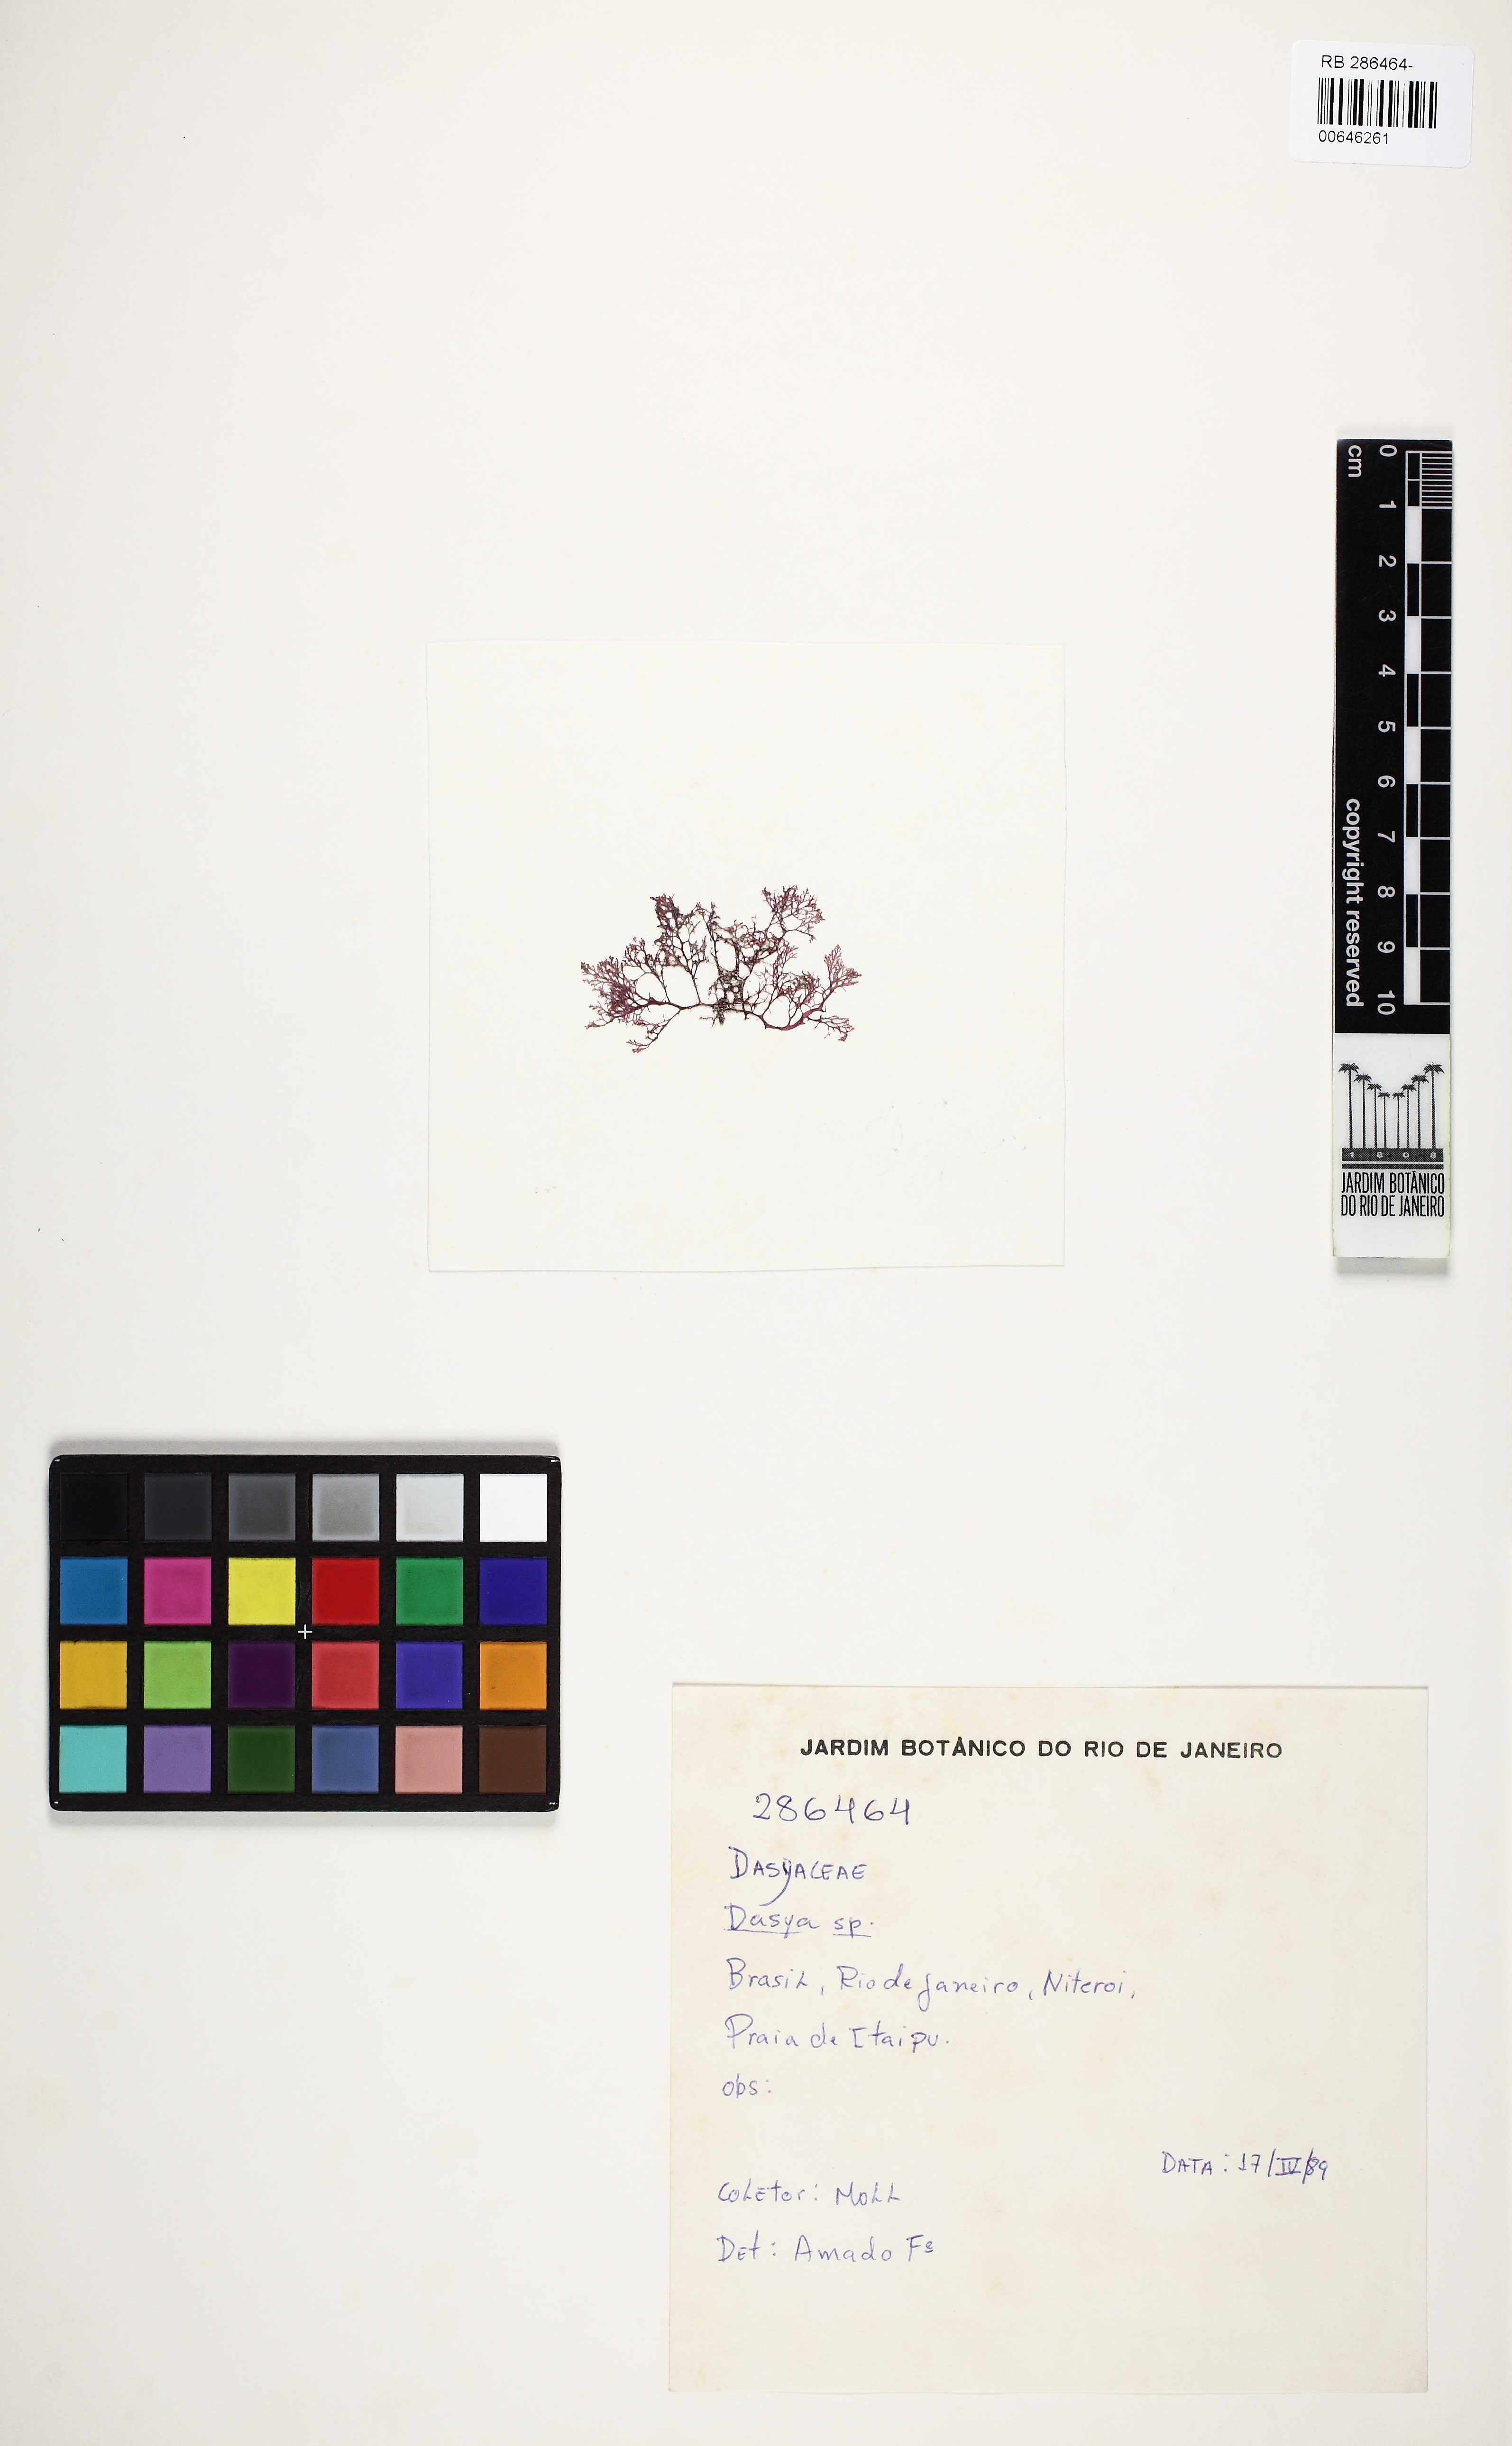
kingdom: Plantae
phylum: Rhodophyta
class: Florideophyceae
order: Ceramiales
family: Dasyaceae
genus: Dasya
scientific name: Dasya
